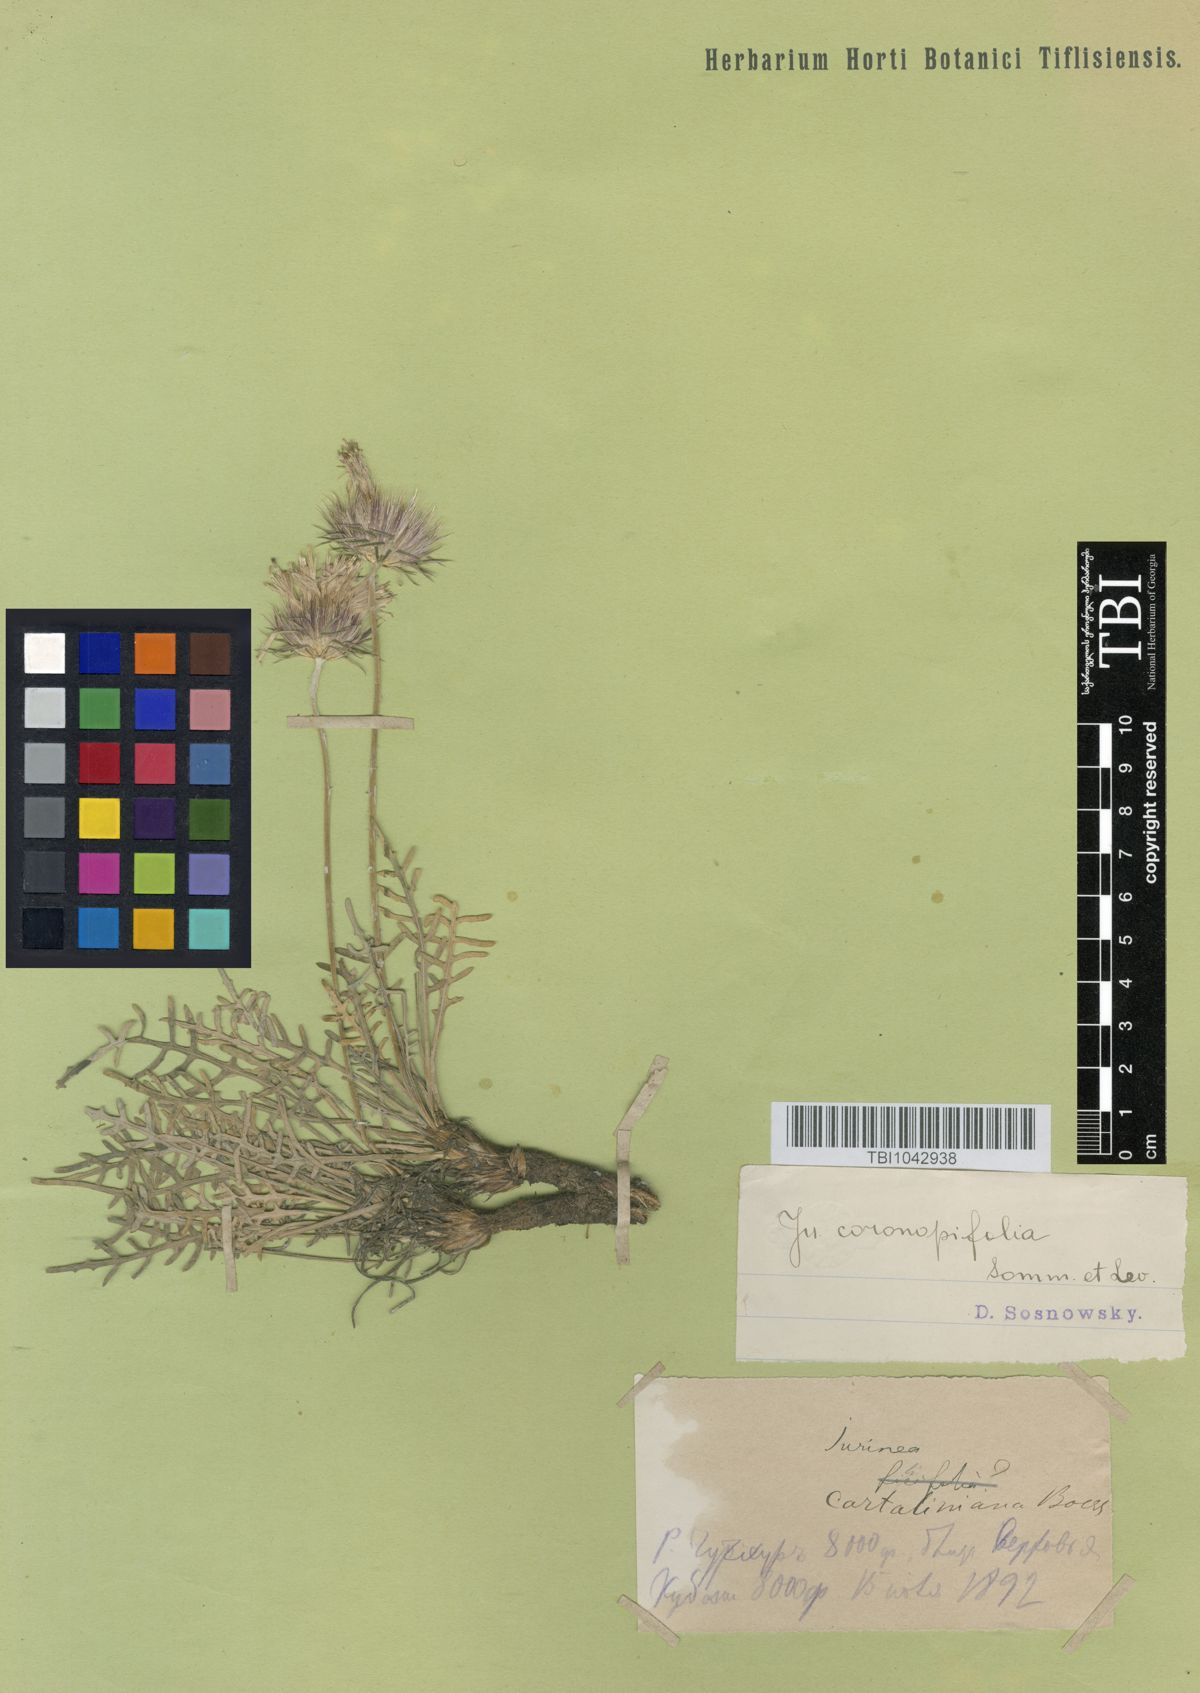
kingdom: Plantae
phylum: Tracheophyta
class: Magnoliopsida
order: Asterales
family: Asteraceae
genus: Jurinea
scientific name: Jurinea coronopifolia
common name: Wart-cress-leaved jurinea
